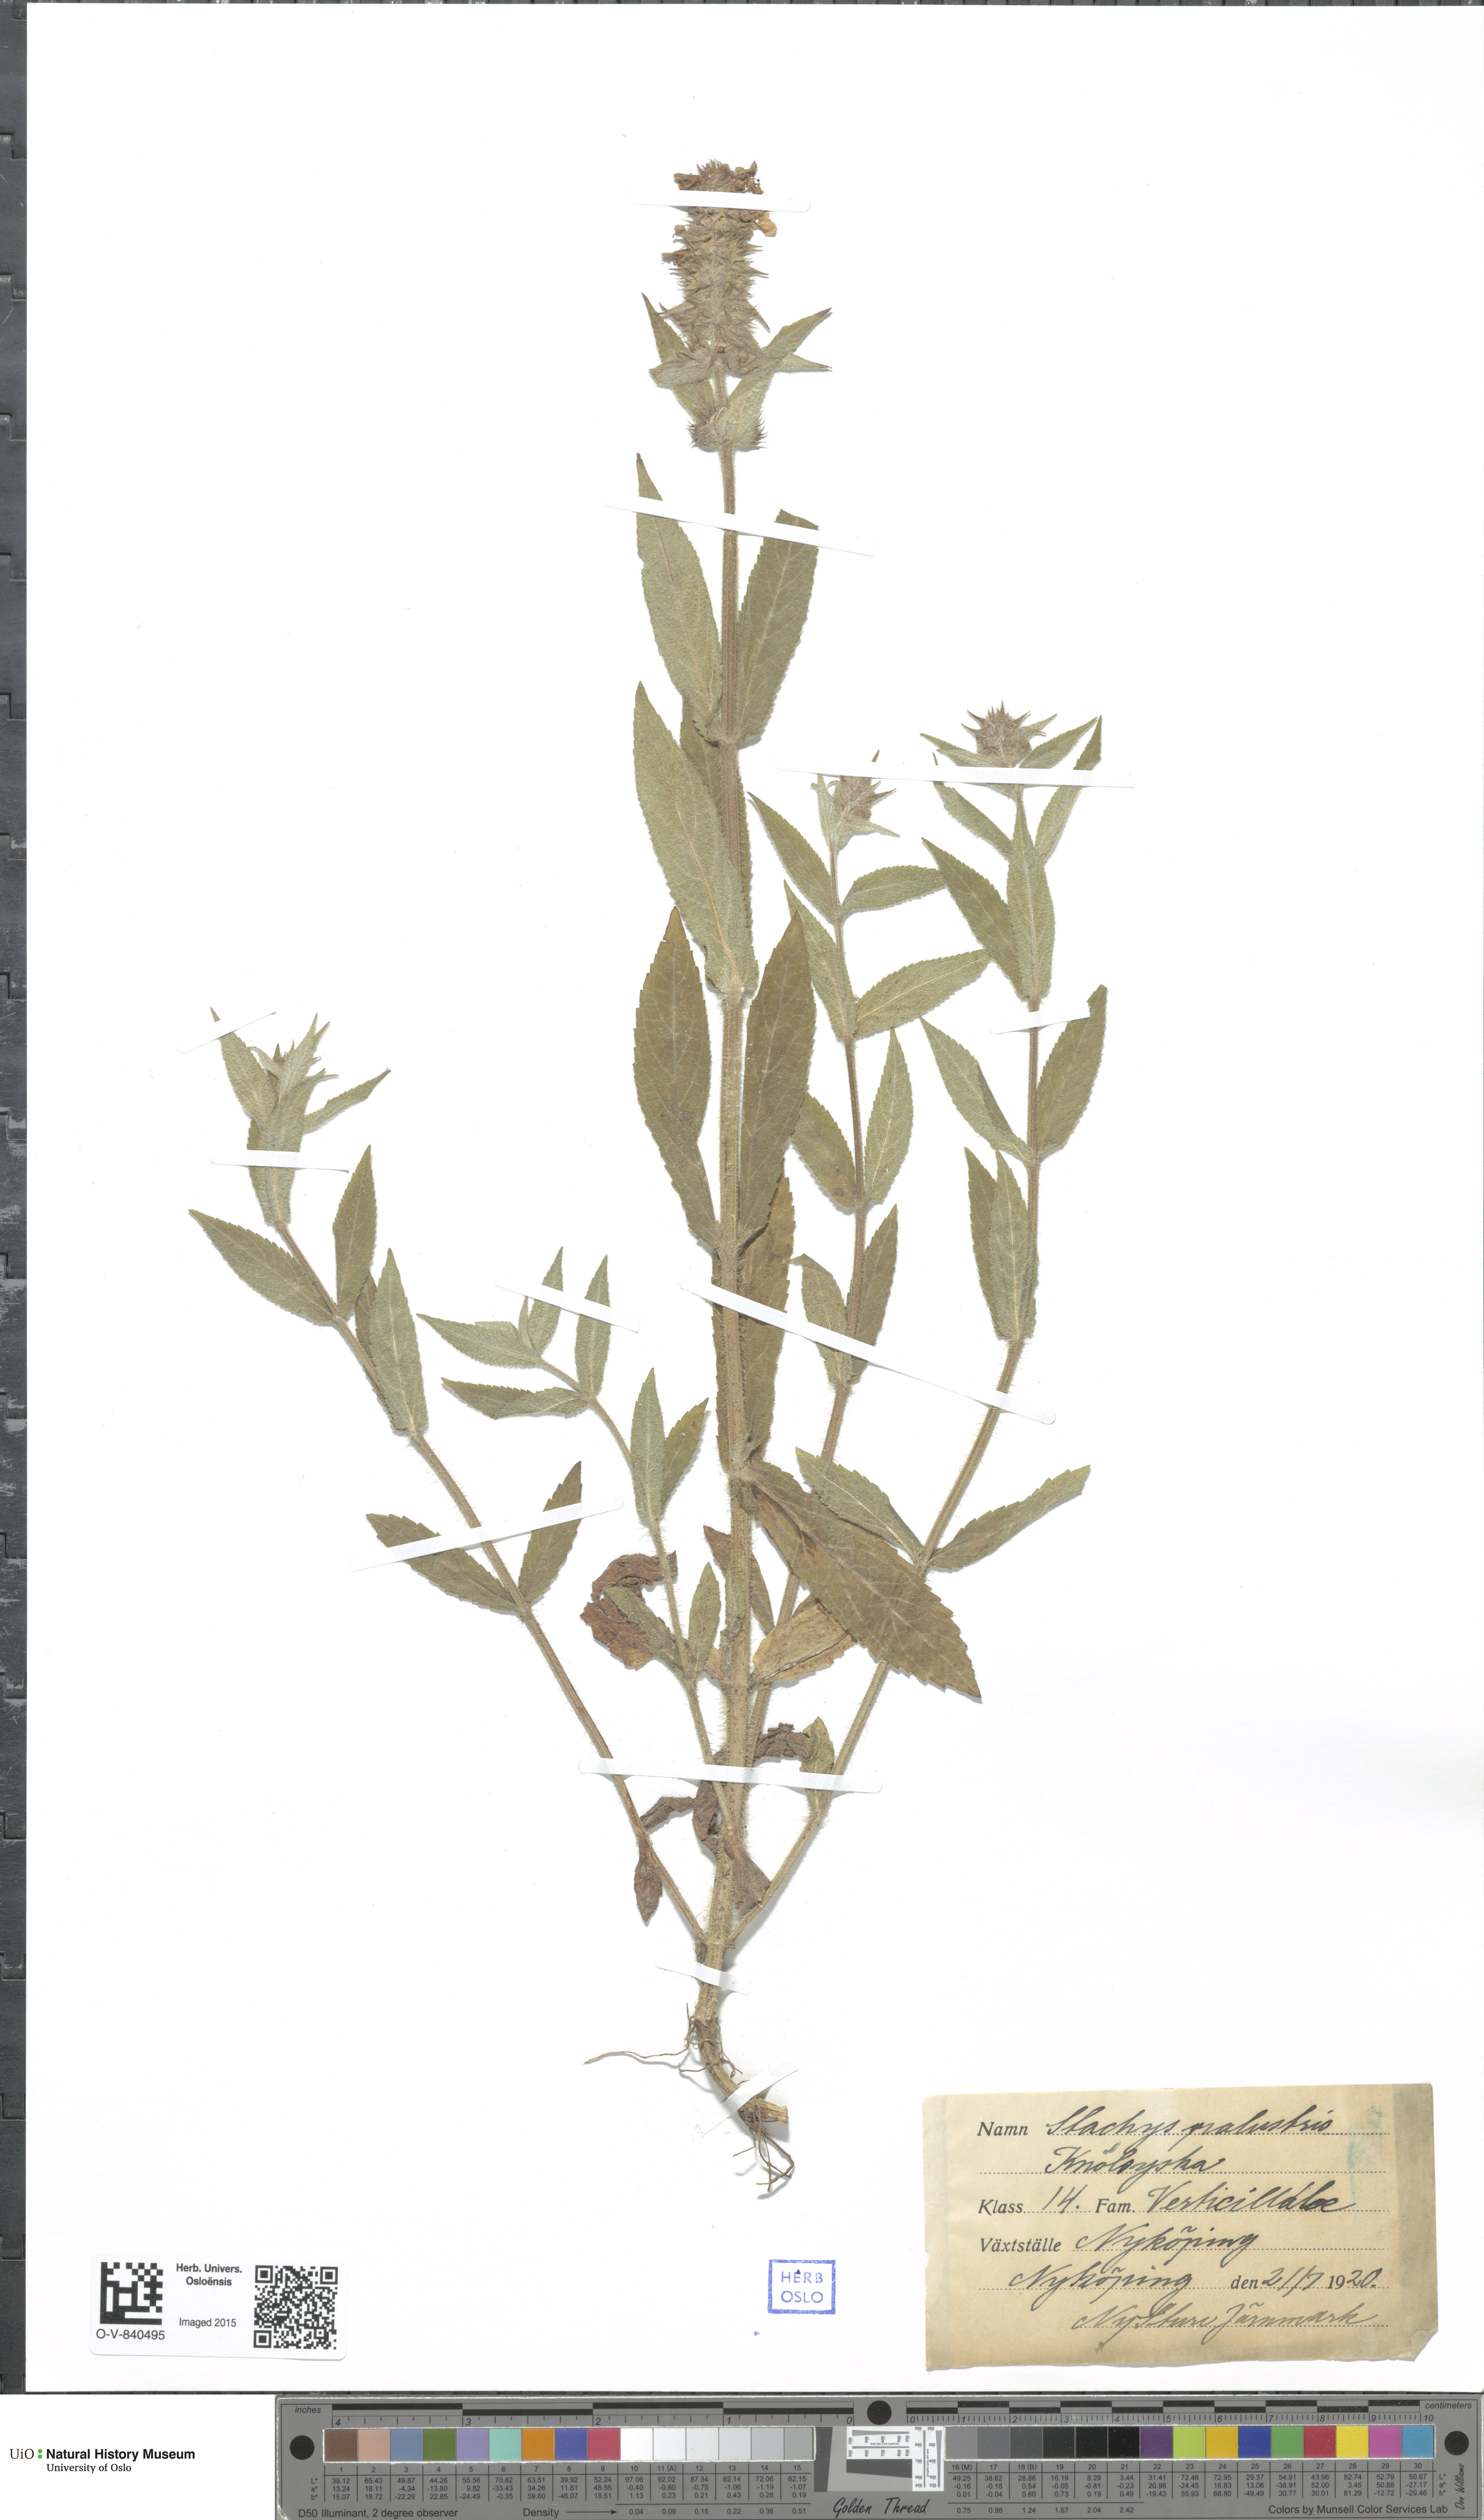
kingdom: Plantae
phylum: Tracheophyta
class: Magnoliopsida
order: Lamiales
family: Lamiaceae
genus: Stachys
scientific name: Stachys palustris
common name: Marsh woundwort
